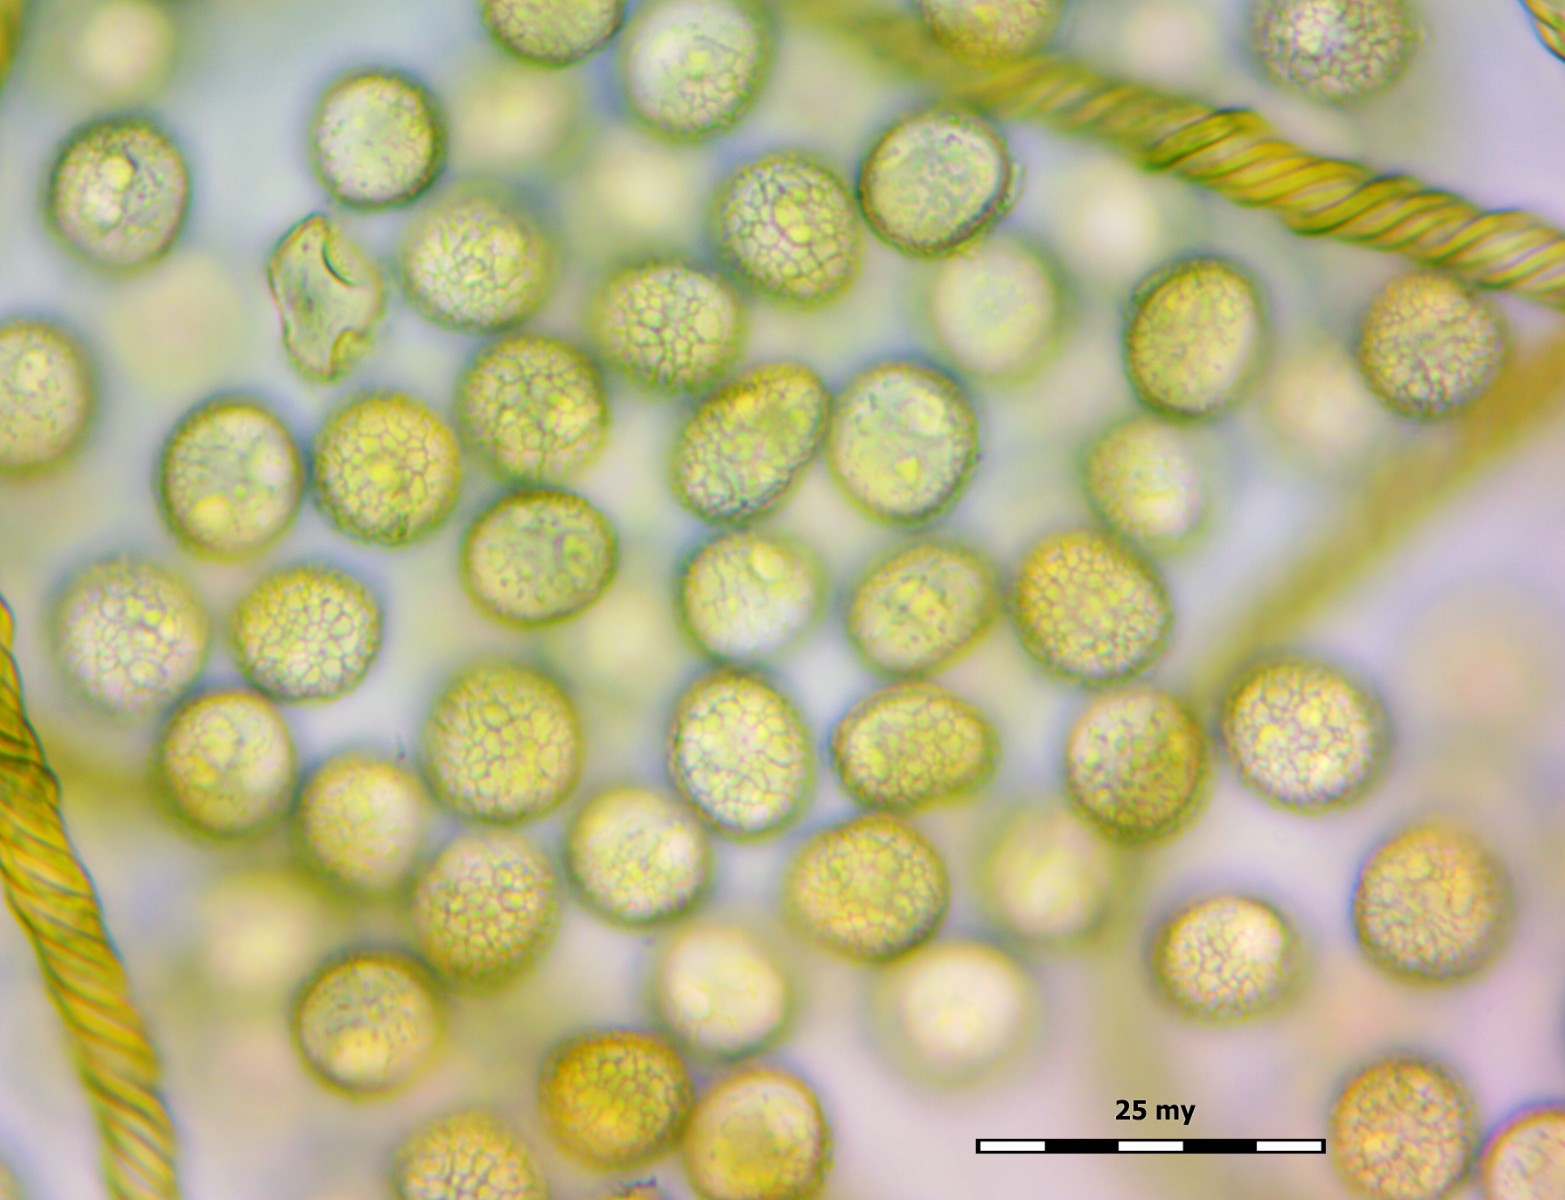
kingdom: Protozoa
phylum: Mycetozoa
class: Myxomycetes
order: Trichiales
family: Arcyriaceae
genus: Hemitrichia
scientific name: Hemitrichia decipiens
